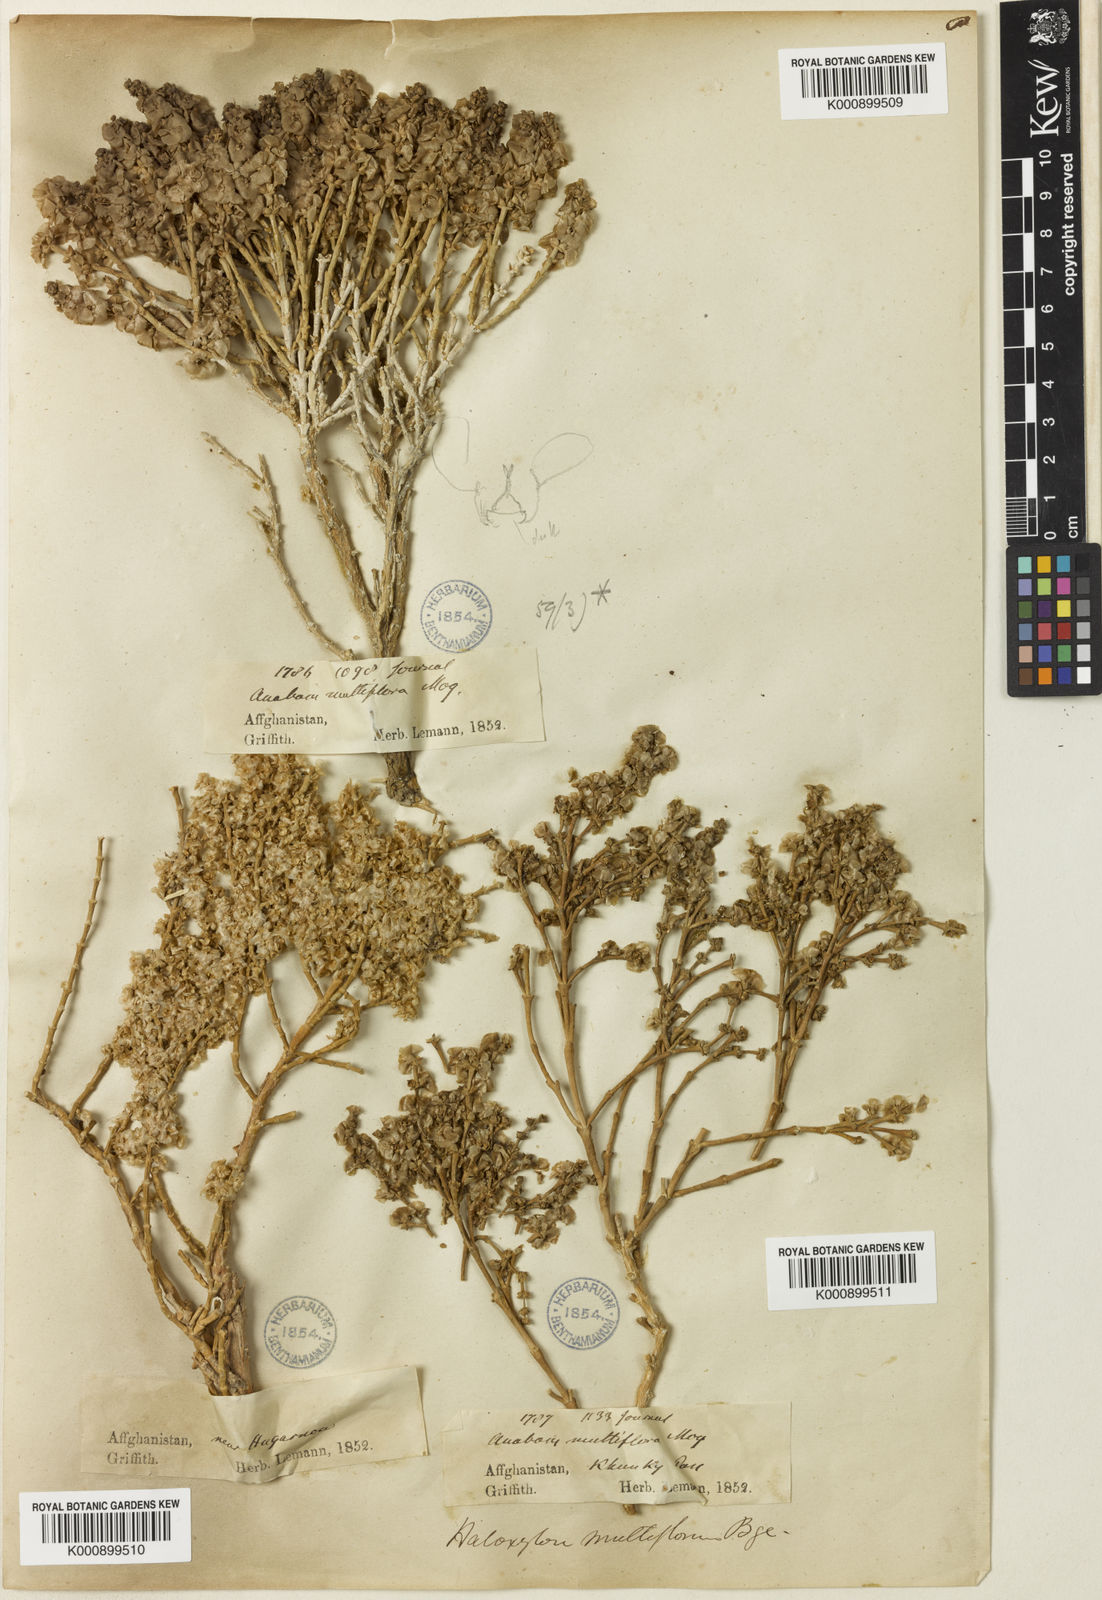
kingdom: Plantae
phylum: Tracheophyta
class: Magnoliopsida
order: Caryophyllales
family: Amaranthaceae
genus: Haloxylon
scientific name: Haloxylon multiflorum
